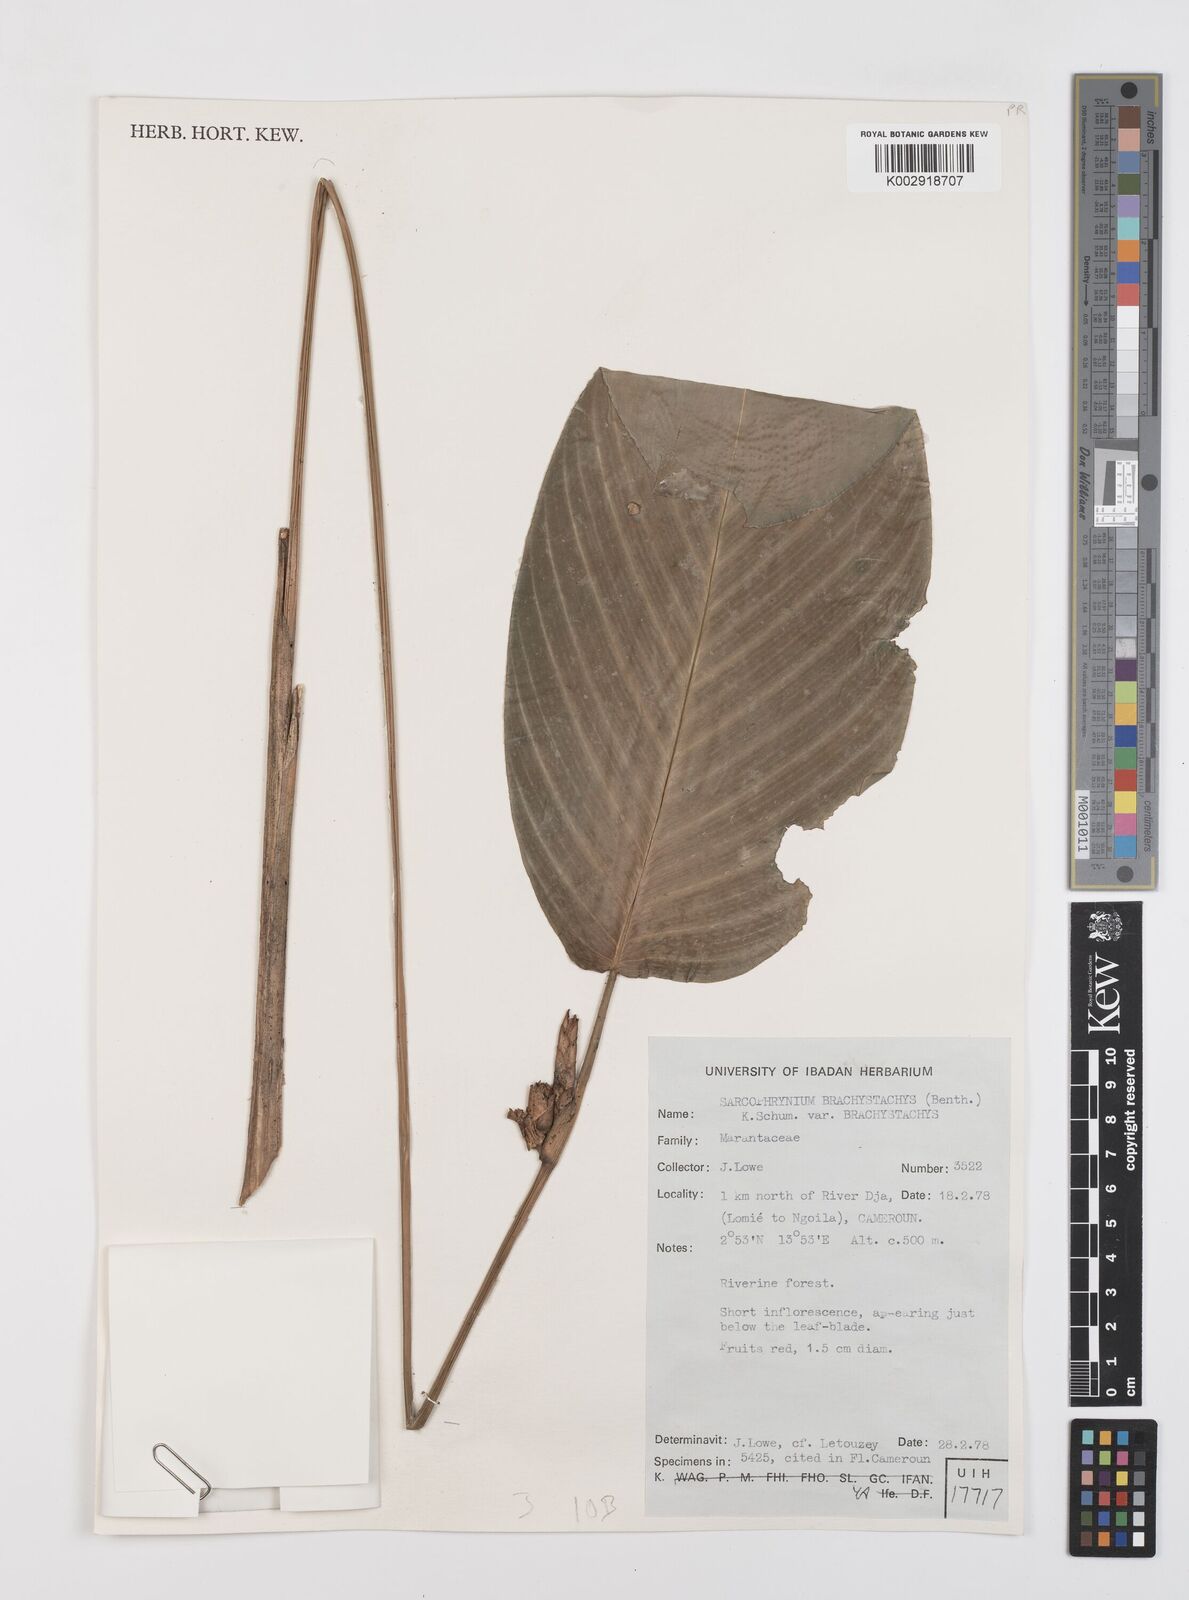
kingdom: Plantae
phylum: Tracheophyta
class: Liliopsida
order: Zingiberales
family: Marantaceae
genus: Sarcophrynium
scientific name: Sarcophrynium brachystachyum
